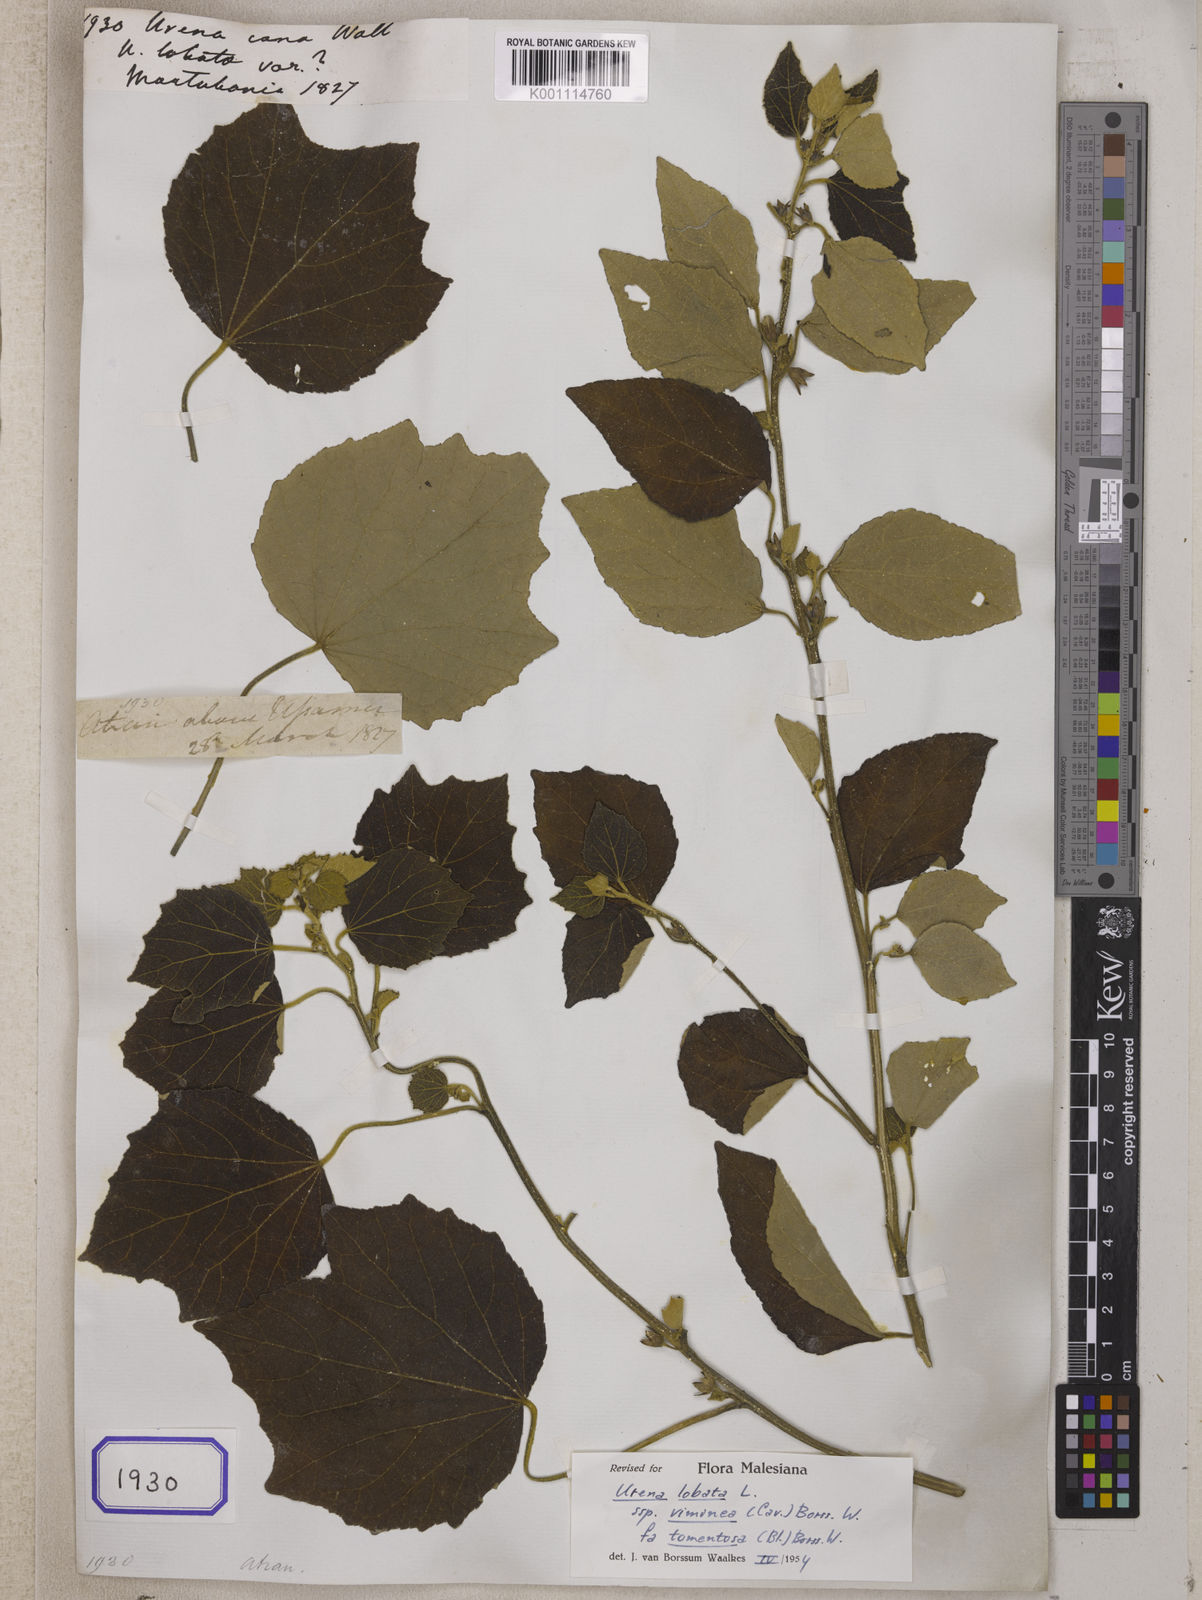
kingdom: Plantae
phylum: Tracheophyta
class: Magnoliopsida
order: Malvales
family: Malvaceae
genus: Urena
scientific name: Urena lobata
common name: Caesarweed
